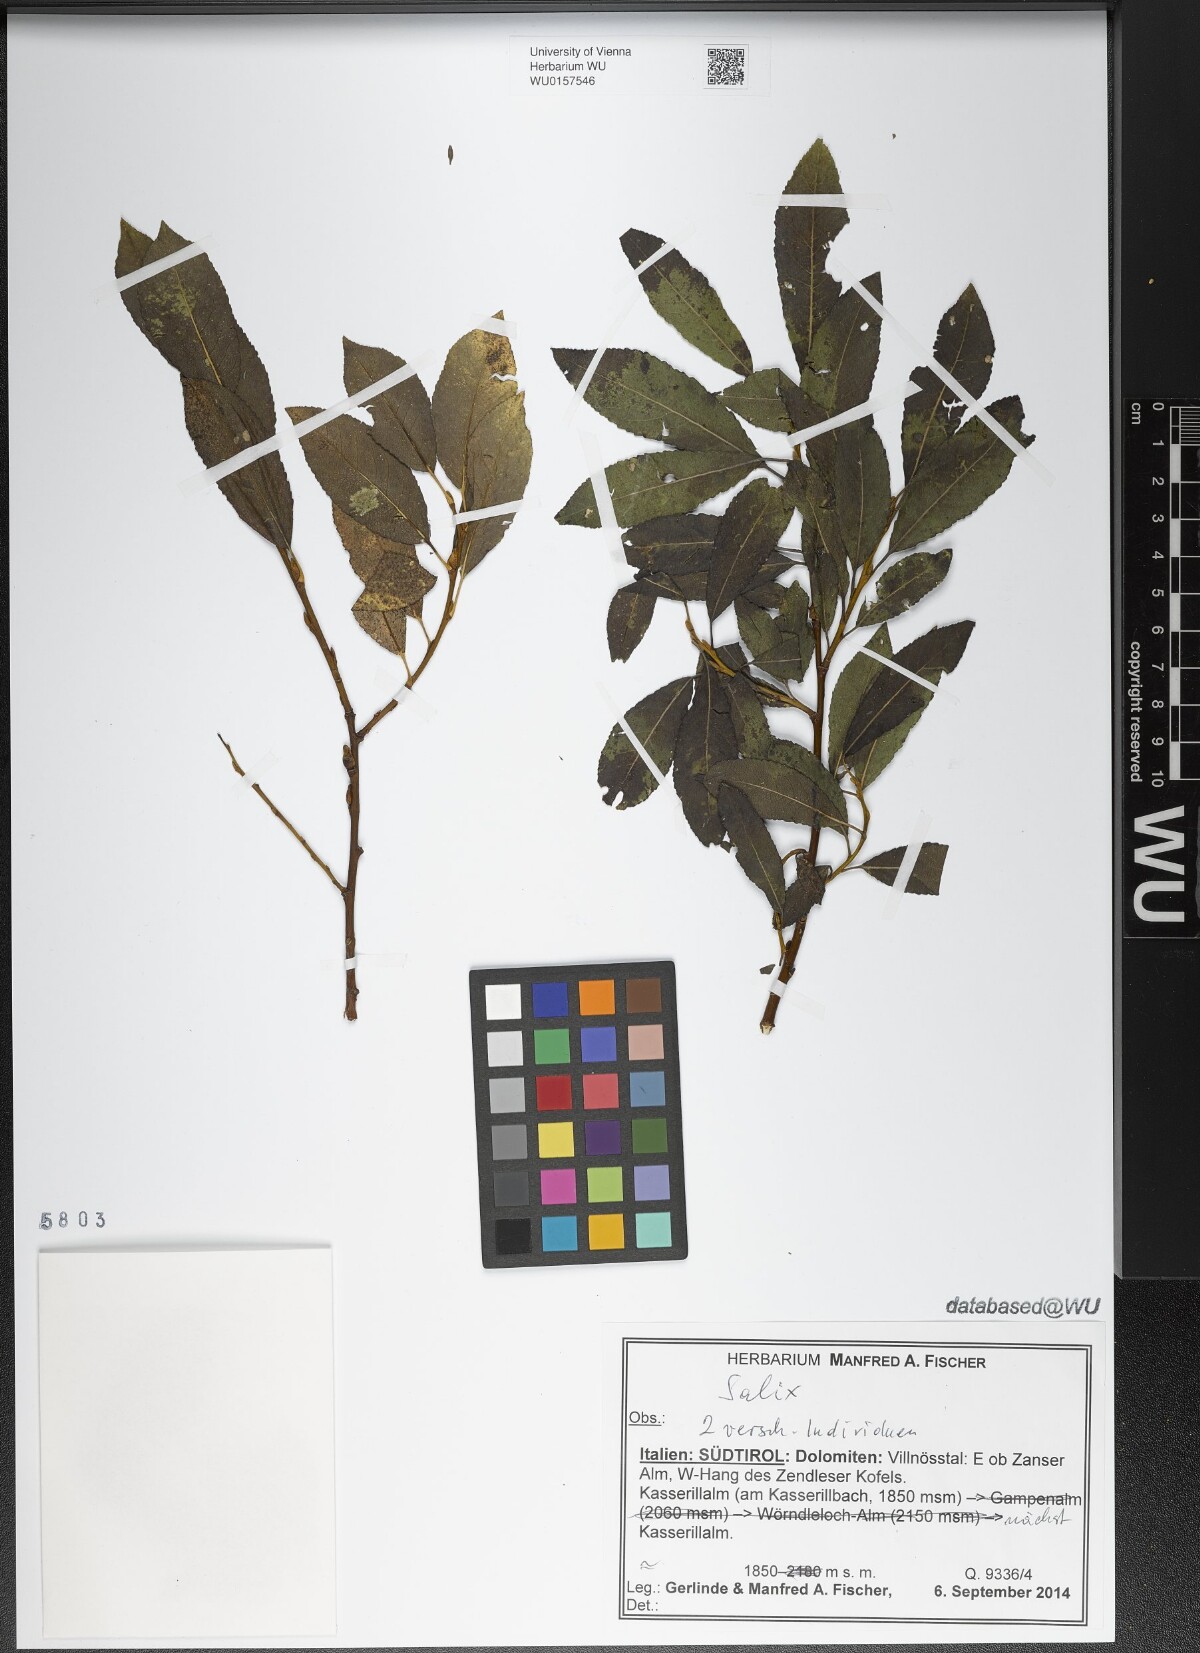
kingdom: Plantae
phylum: Tracheophyta
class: Magnoliopsida
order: Malpighiales
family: Salicaceae
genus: Salix
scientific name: Salix
